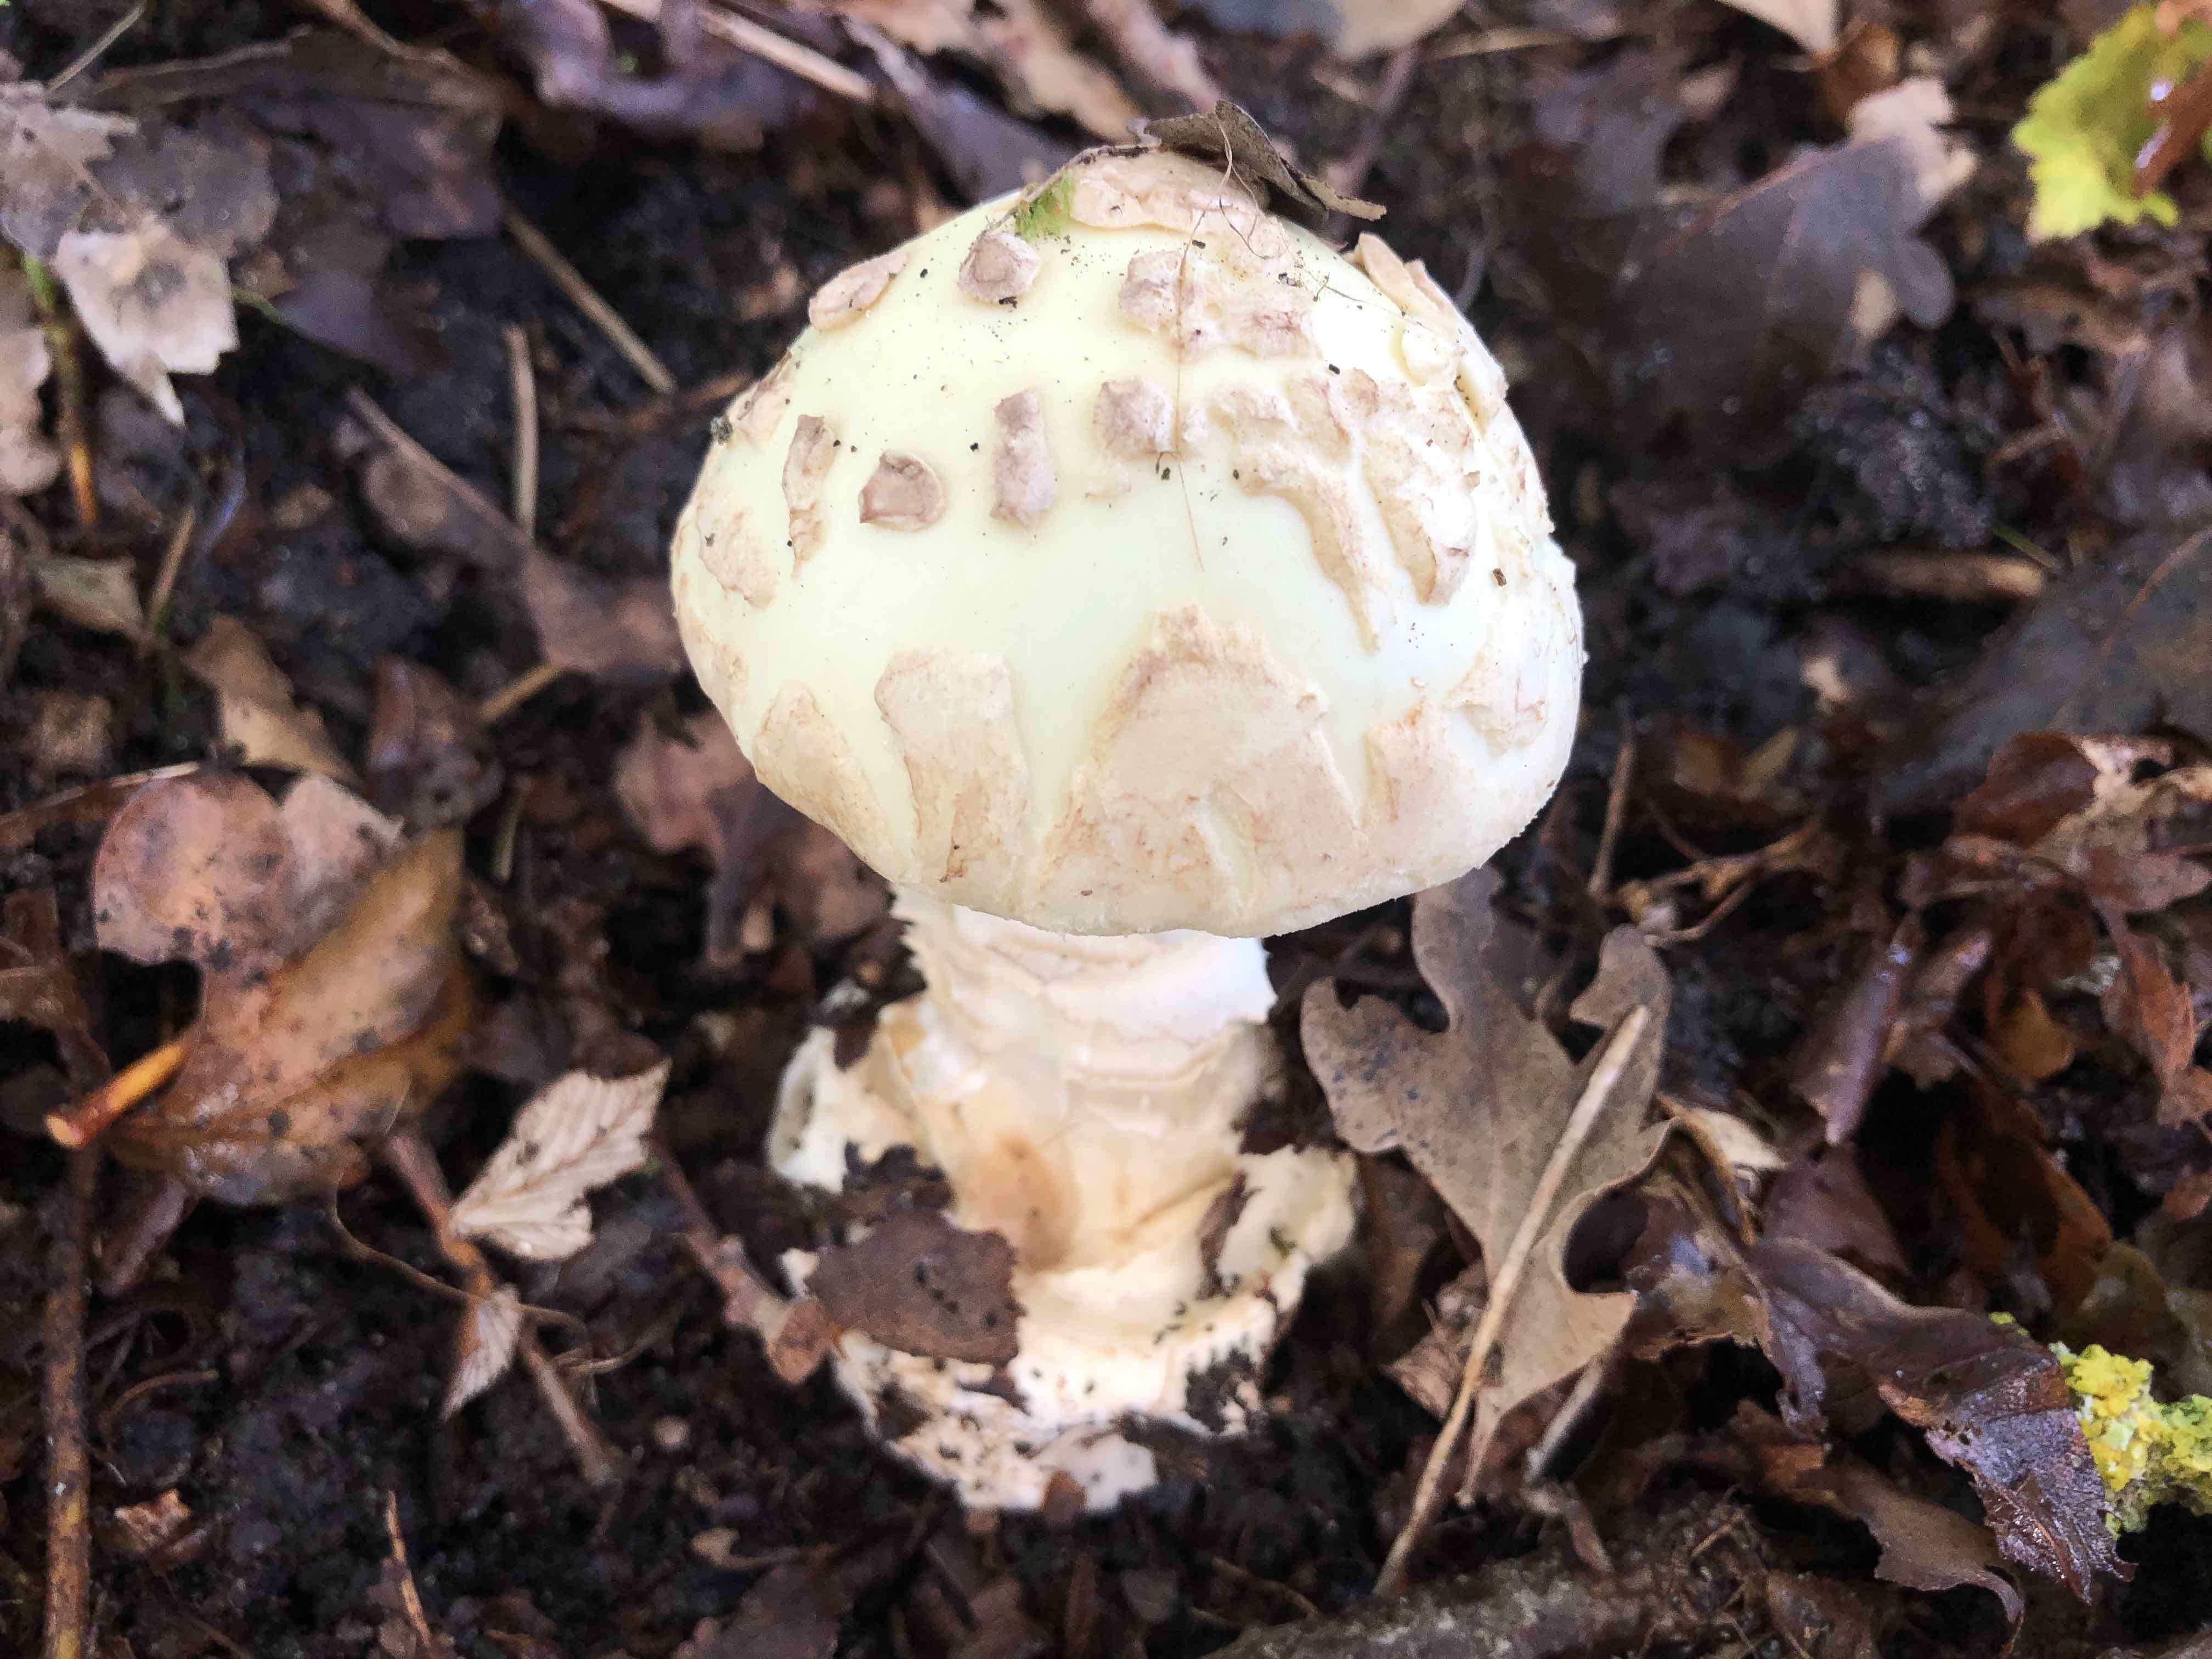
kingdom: Fungi
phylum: Basidiomycota
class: Agaricomycetes
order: Agaricales
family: Amanitaceae
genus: Amanita
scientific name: Amanita citrina
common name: kugleknoldet fluesvamp
